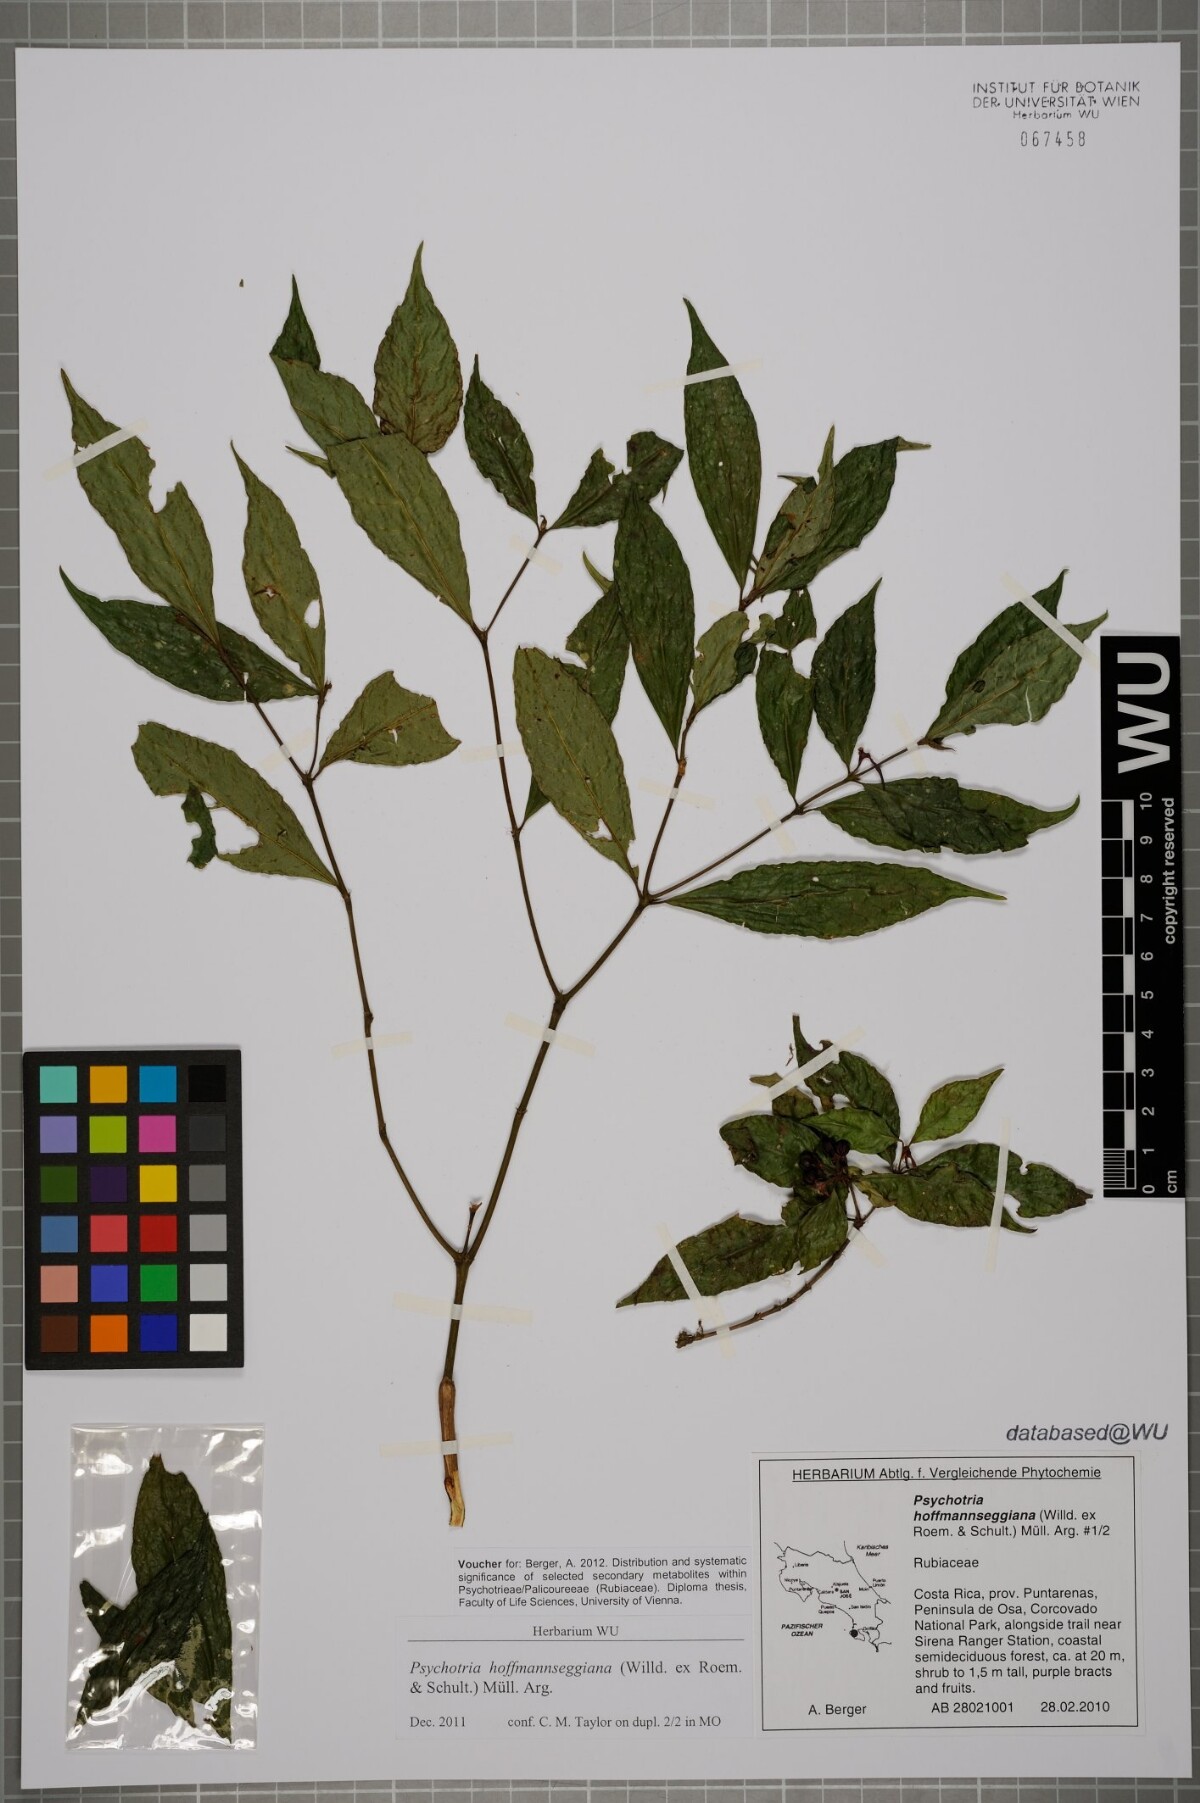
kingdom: Plantae
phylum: Tracheophyta
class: Magnoliopsida
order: Gentianales
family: Rubiaceae
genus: Palicourea
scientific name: Palicourea hoffmannseggiana
